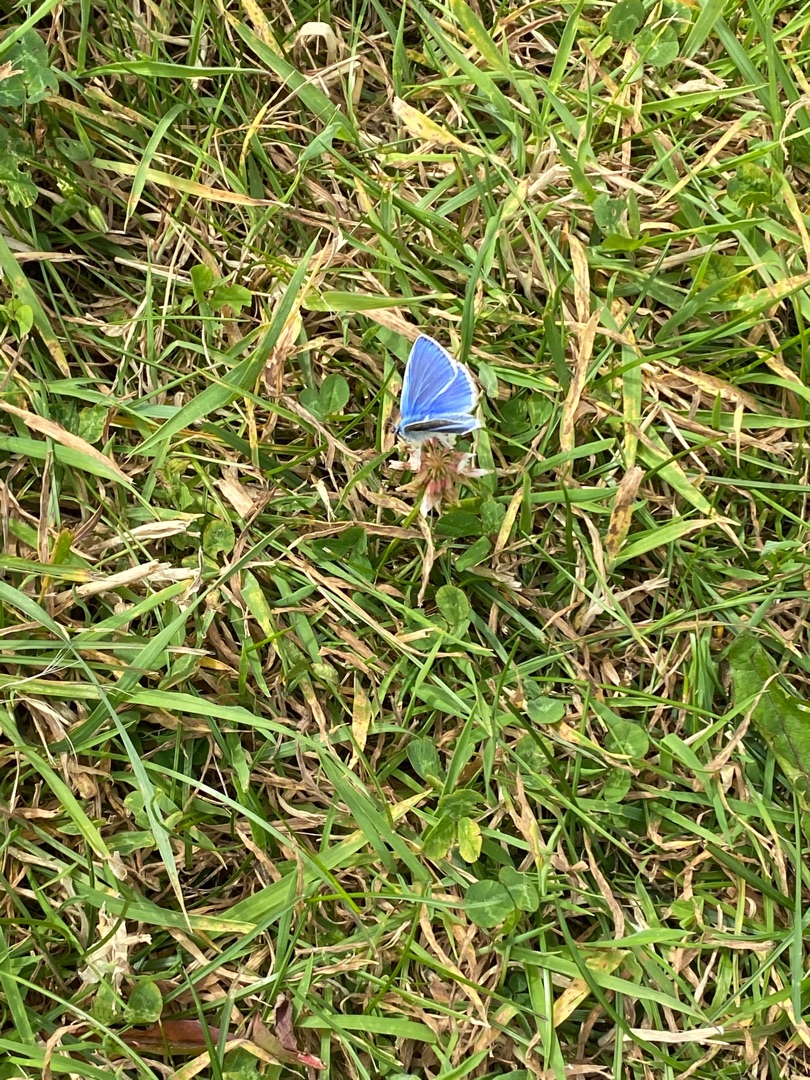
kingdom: Animalia
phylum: Arthropoda
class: Insecta
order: Lepidoptera
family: Lycaenidae
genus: Polyommatus
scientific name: Polyommatus icarus
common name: Almindelig blåfugl
